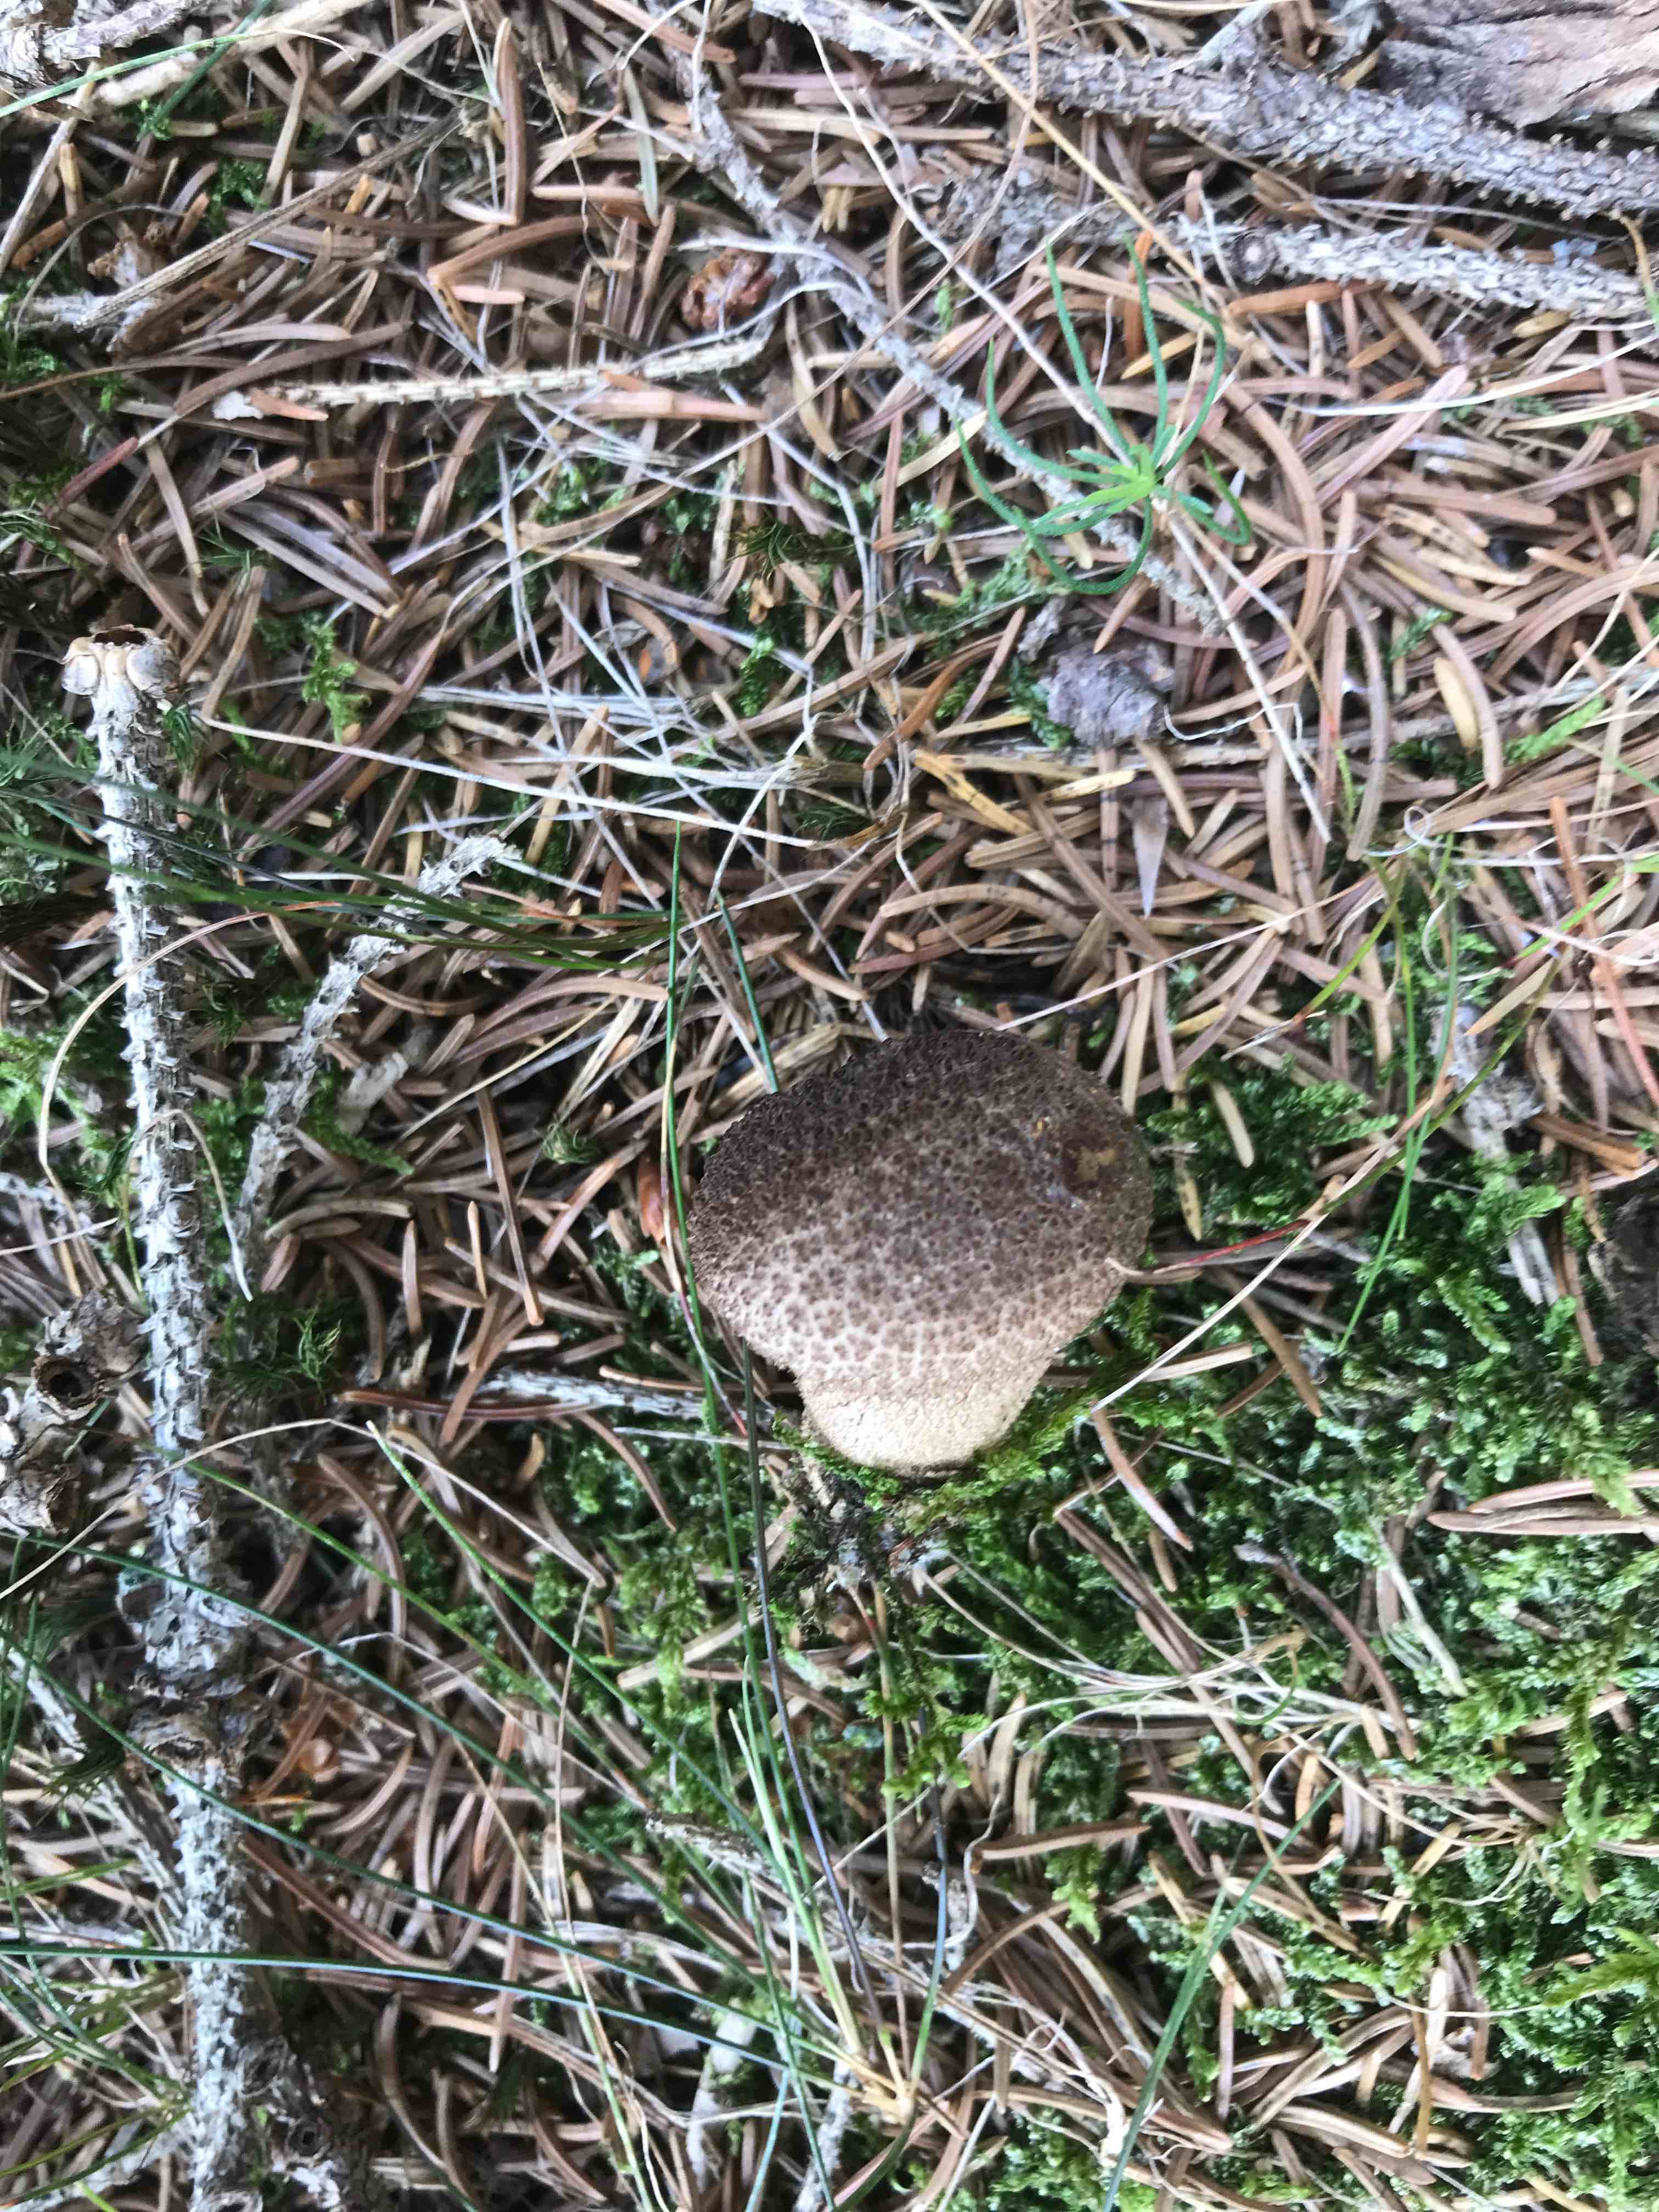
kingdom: Fungi
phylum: Basidiomycota
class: Agaricomycetes
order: Agaricales
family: Lycoperdaceae
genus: Lycoperdon
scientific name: Lycoperdon nigrescens
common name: sortagtig støvbold
